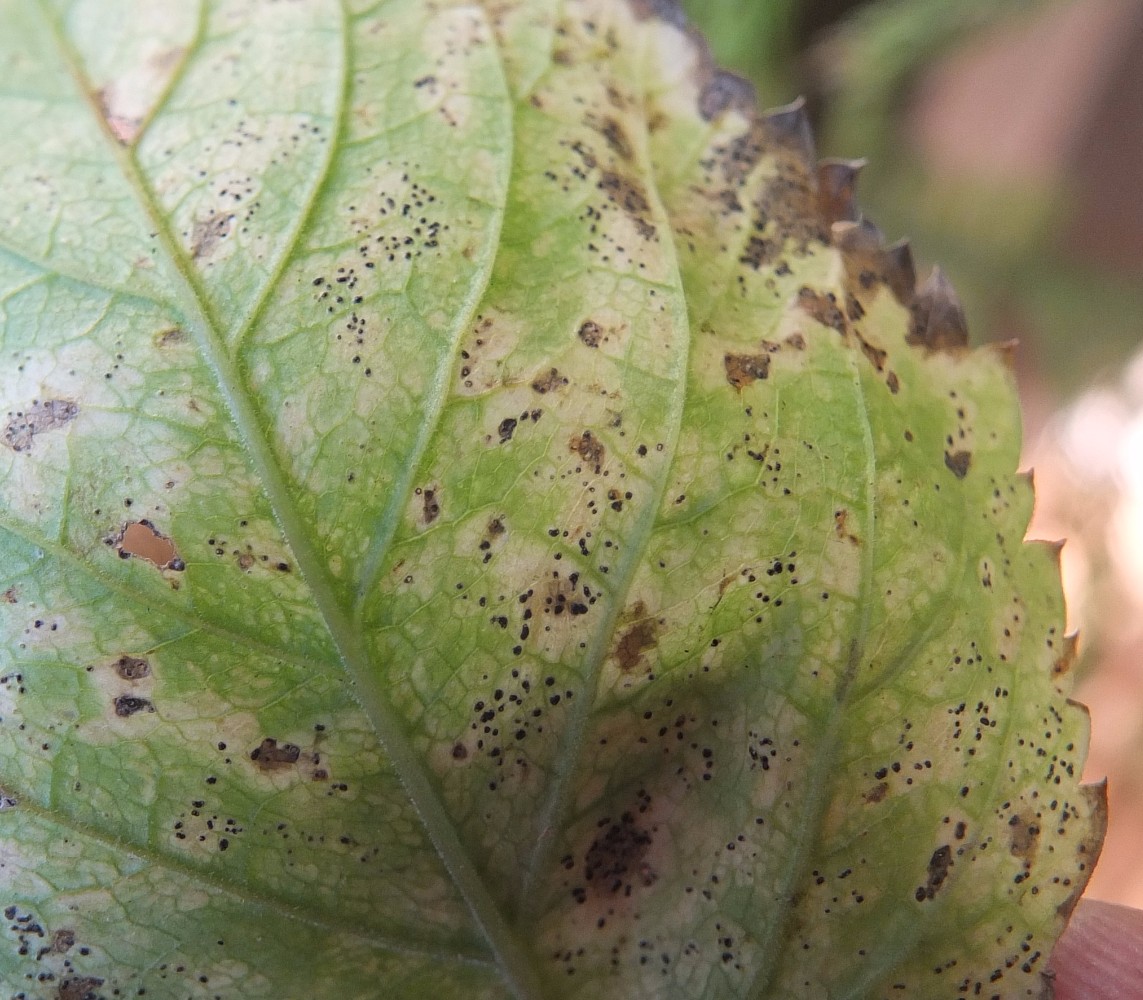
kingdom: Fungi
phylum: Ascomycota
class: Dothideomycetes
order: Mycosphaerellales
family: Mycosphaerellaceae
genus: Mycosphaerella
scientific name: Mycosphaerella podagrariae
